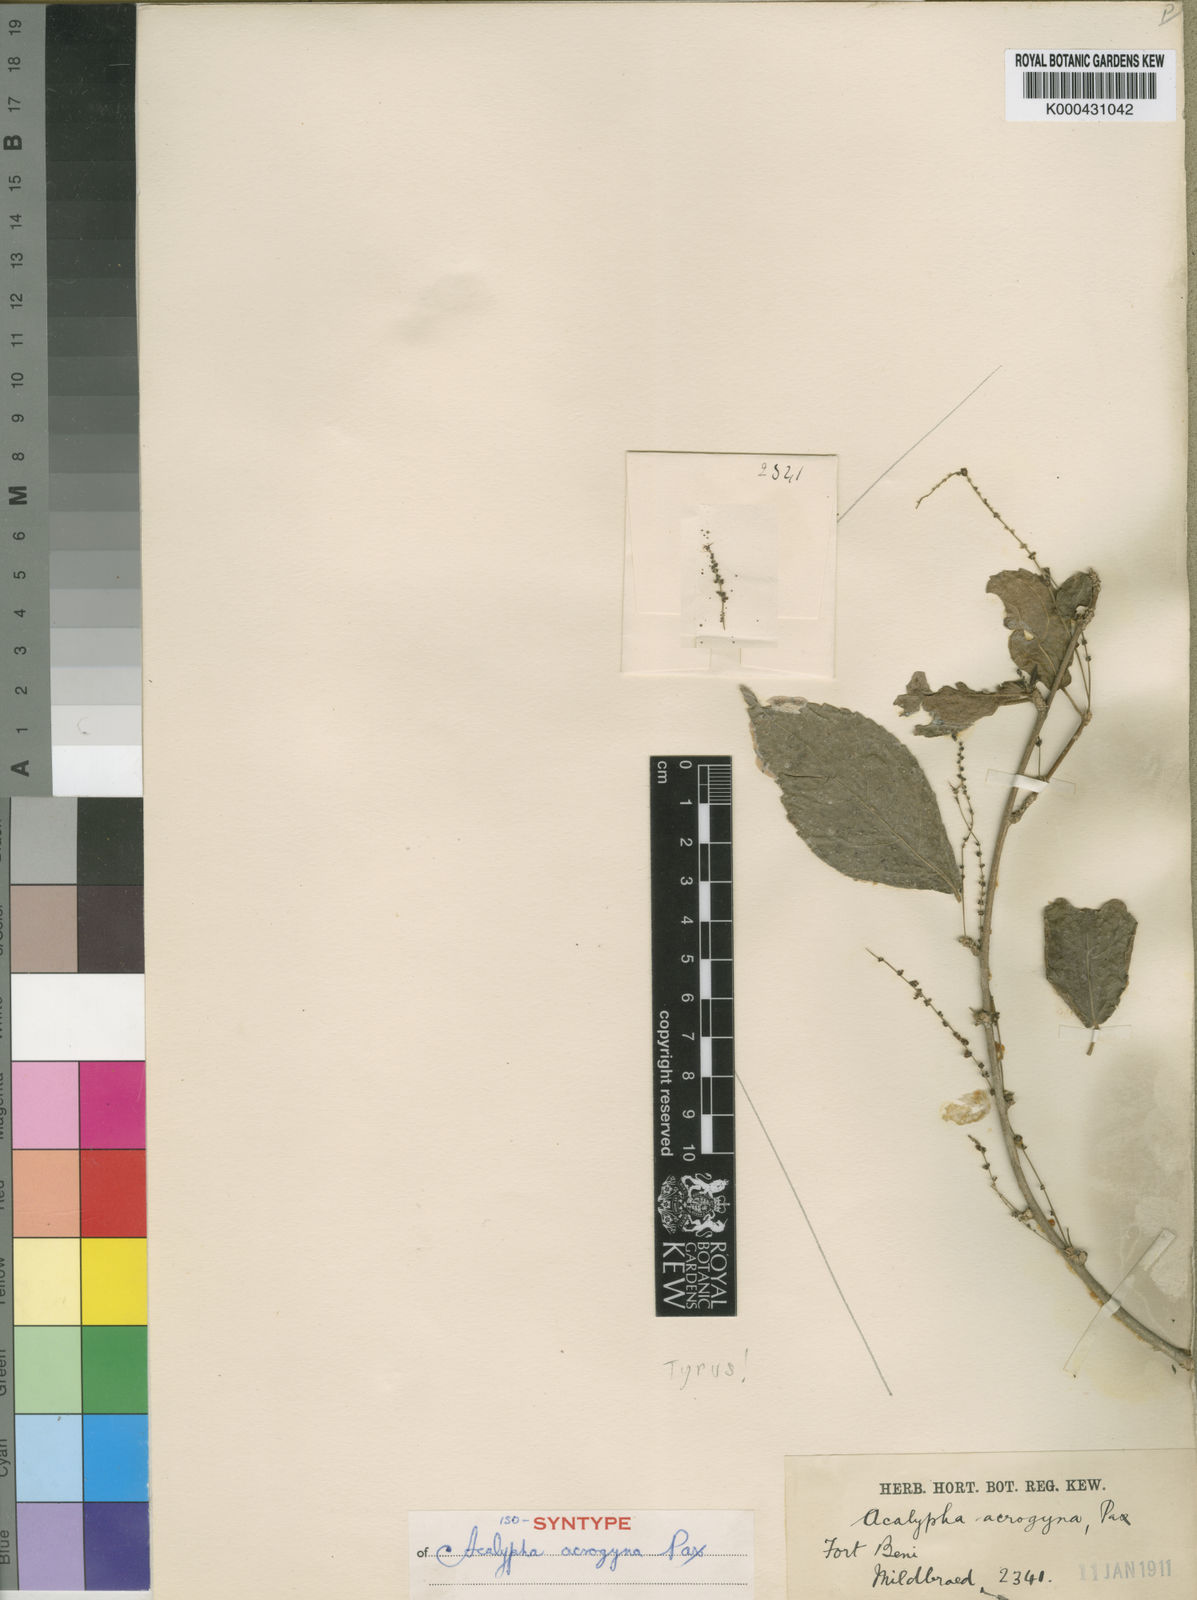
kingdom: Plantae
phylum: Tracheophyta
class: Magnoliopsida
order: Malpighiales
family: Euphorbiaceae
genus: Acalypha
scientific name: Acalypha acrogyna
